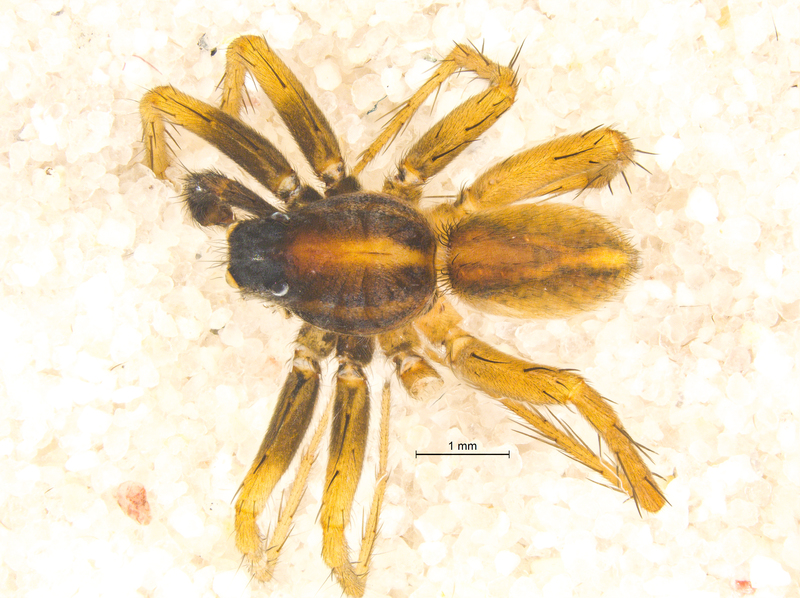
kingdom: Animalia
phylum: Arthropoda
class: Arachnida
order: Araneae
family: Lycosidae
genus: Pardosa
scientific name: Pardosa bifasciata
